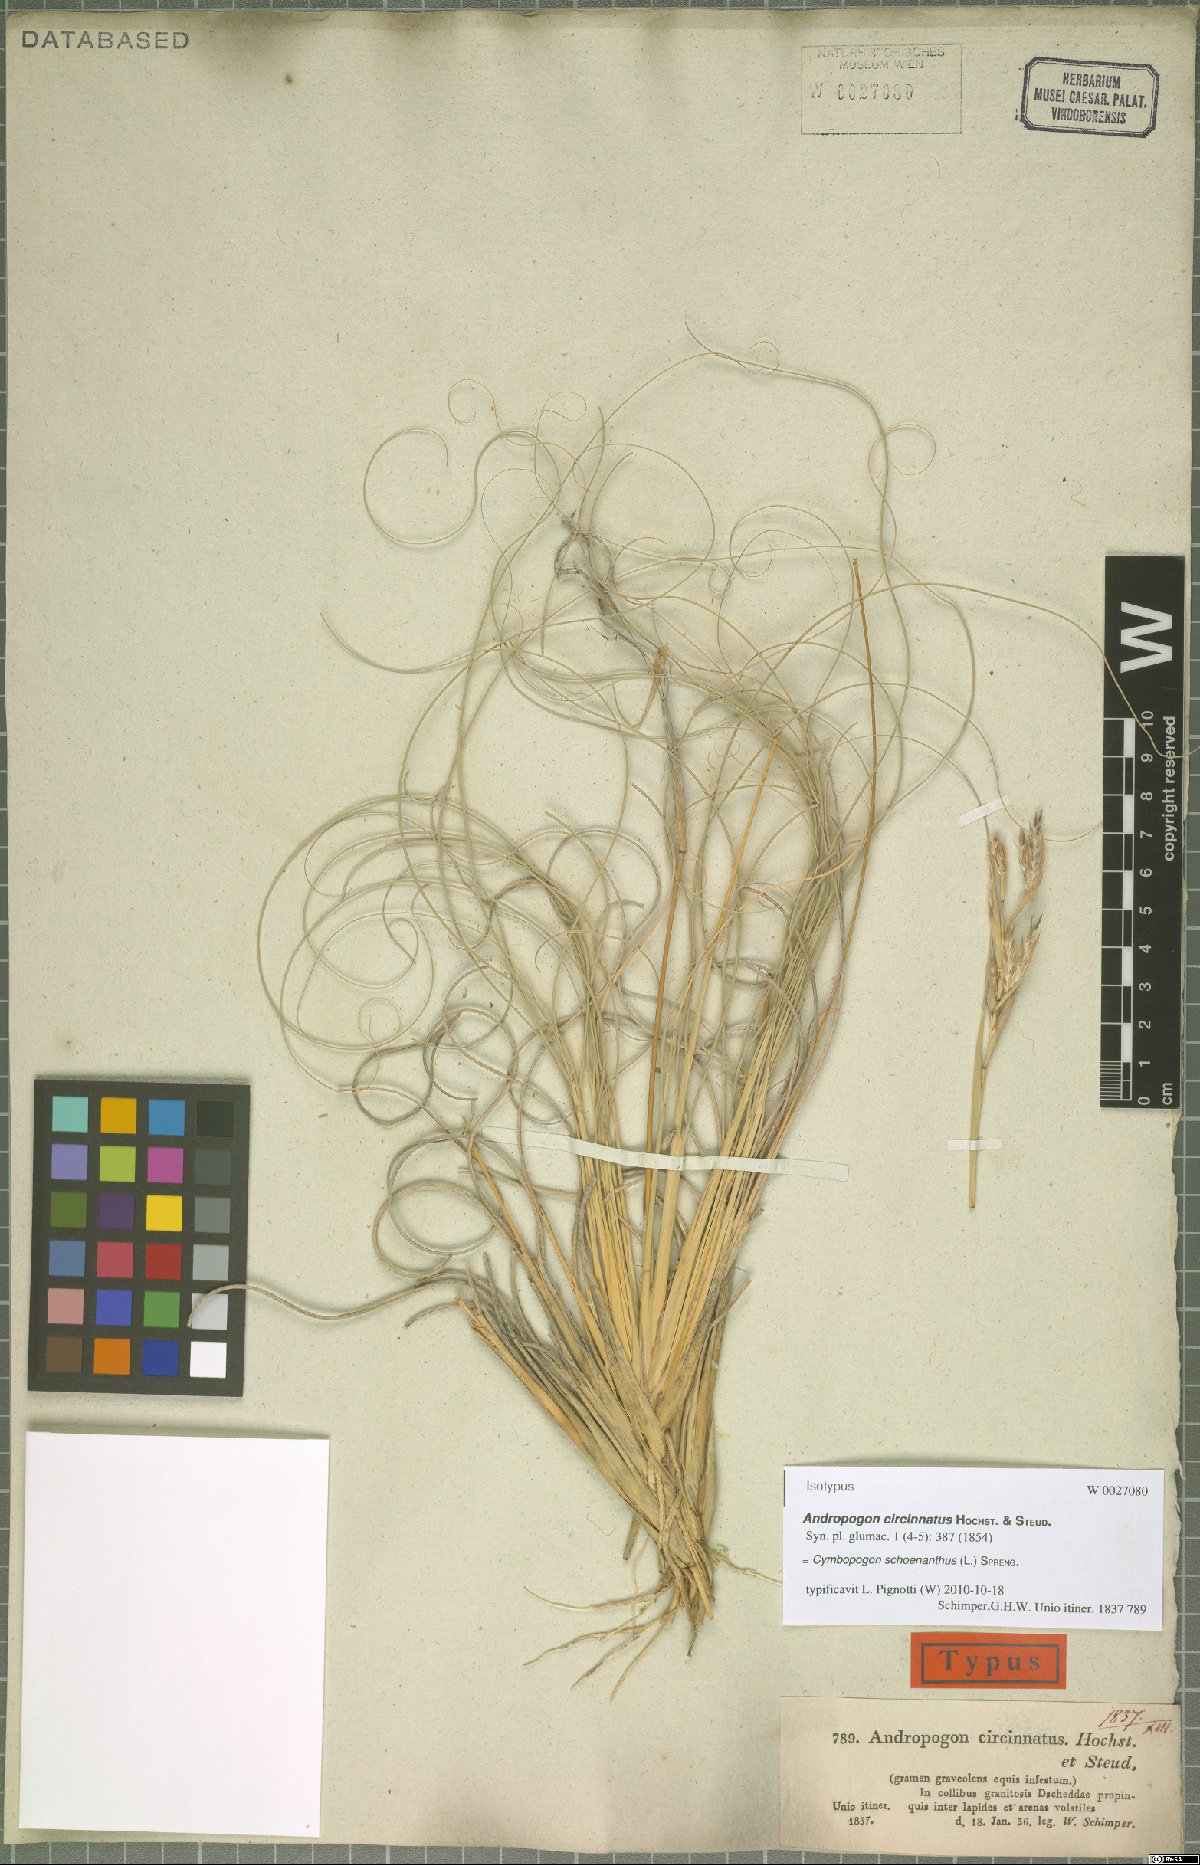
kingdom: Plantae
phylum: Tracheophyta
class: Liliopsida
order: Poales
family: Poaceae
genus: Cymbopogon
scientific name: Cymbopogon schoenanthus
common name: Geranium grass
